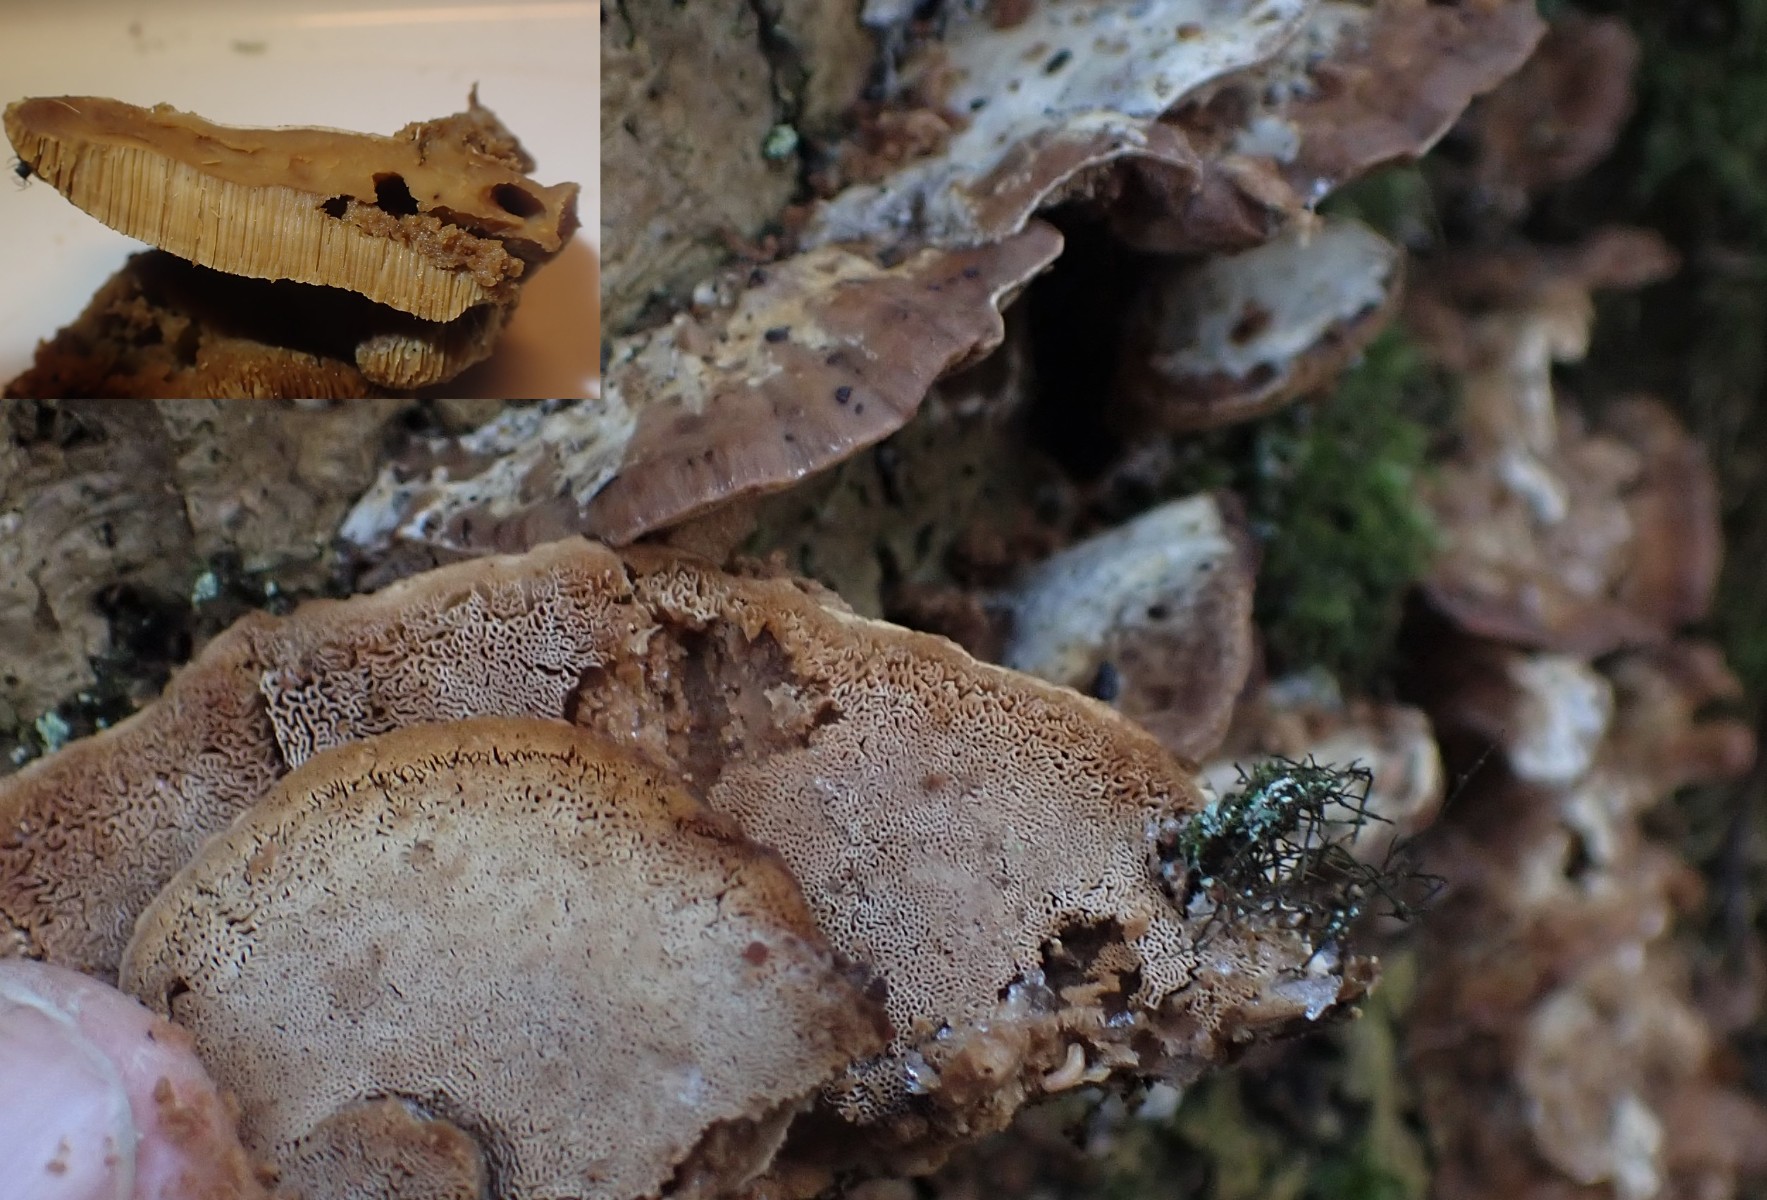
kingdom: Fungi
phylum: Basidiomycota
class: Agaricomycetes
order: Polyporales
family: Phanerochaetaceae
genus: Bjerkandera
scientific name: Bjerkandera fumosa
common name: grågul sodporesvamp
